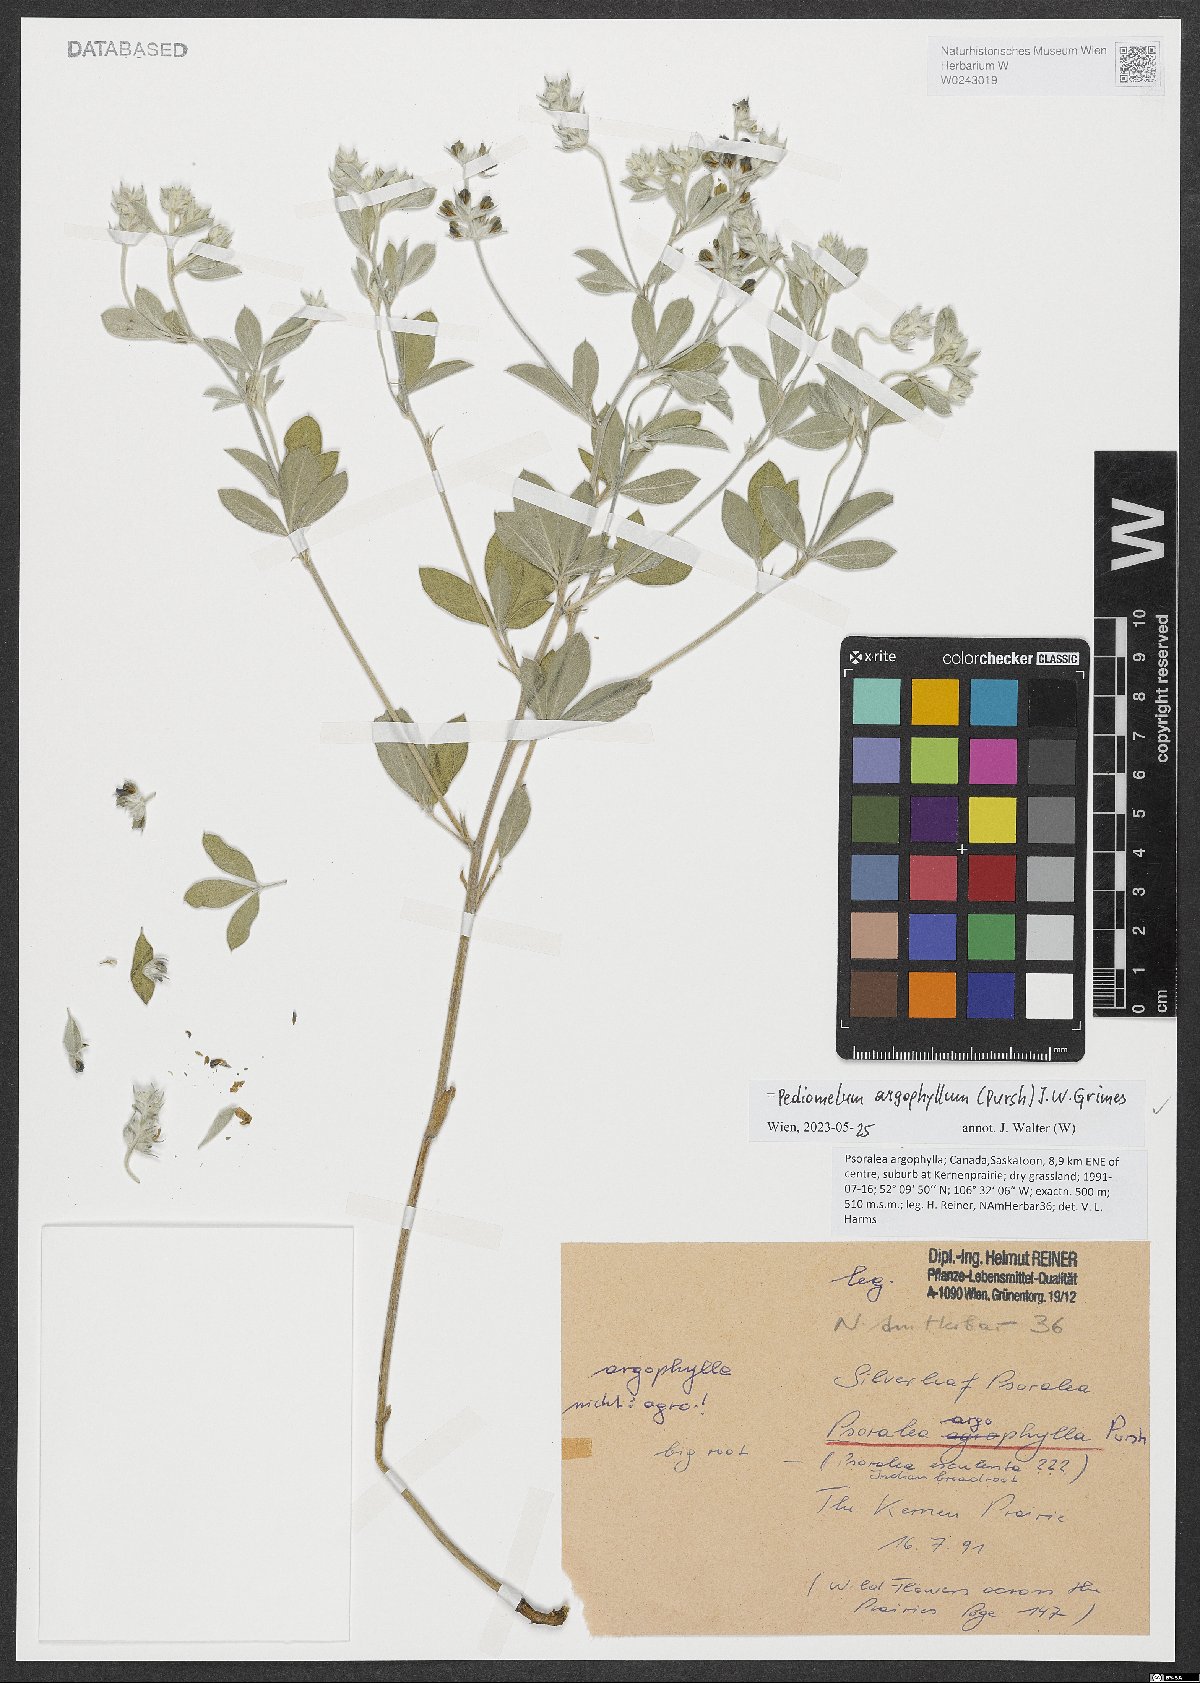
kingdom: Plantae
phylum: Tracheophyta
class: Magnoliopsida
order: Fabales
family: Fabaceae
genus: Pediomelum
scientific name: Pediomelum argophyllum
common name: Silver-leaved indian breadroot
